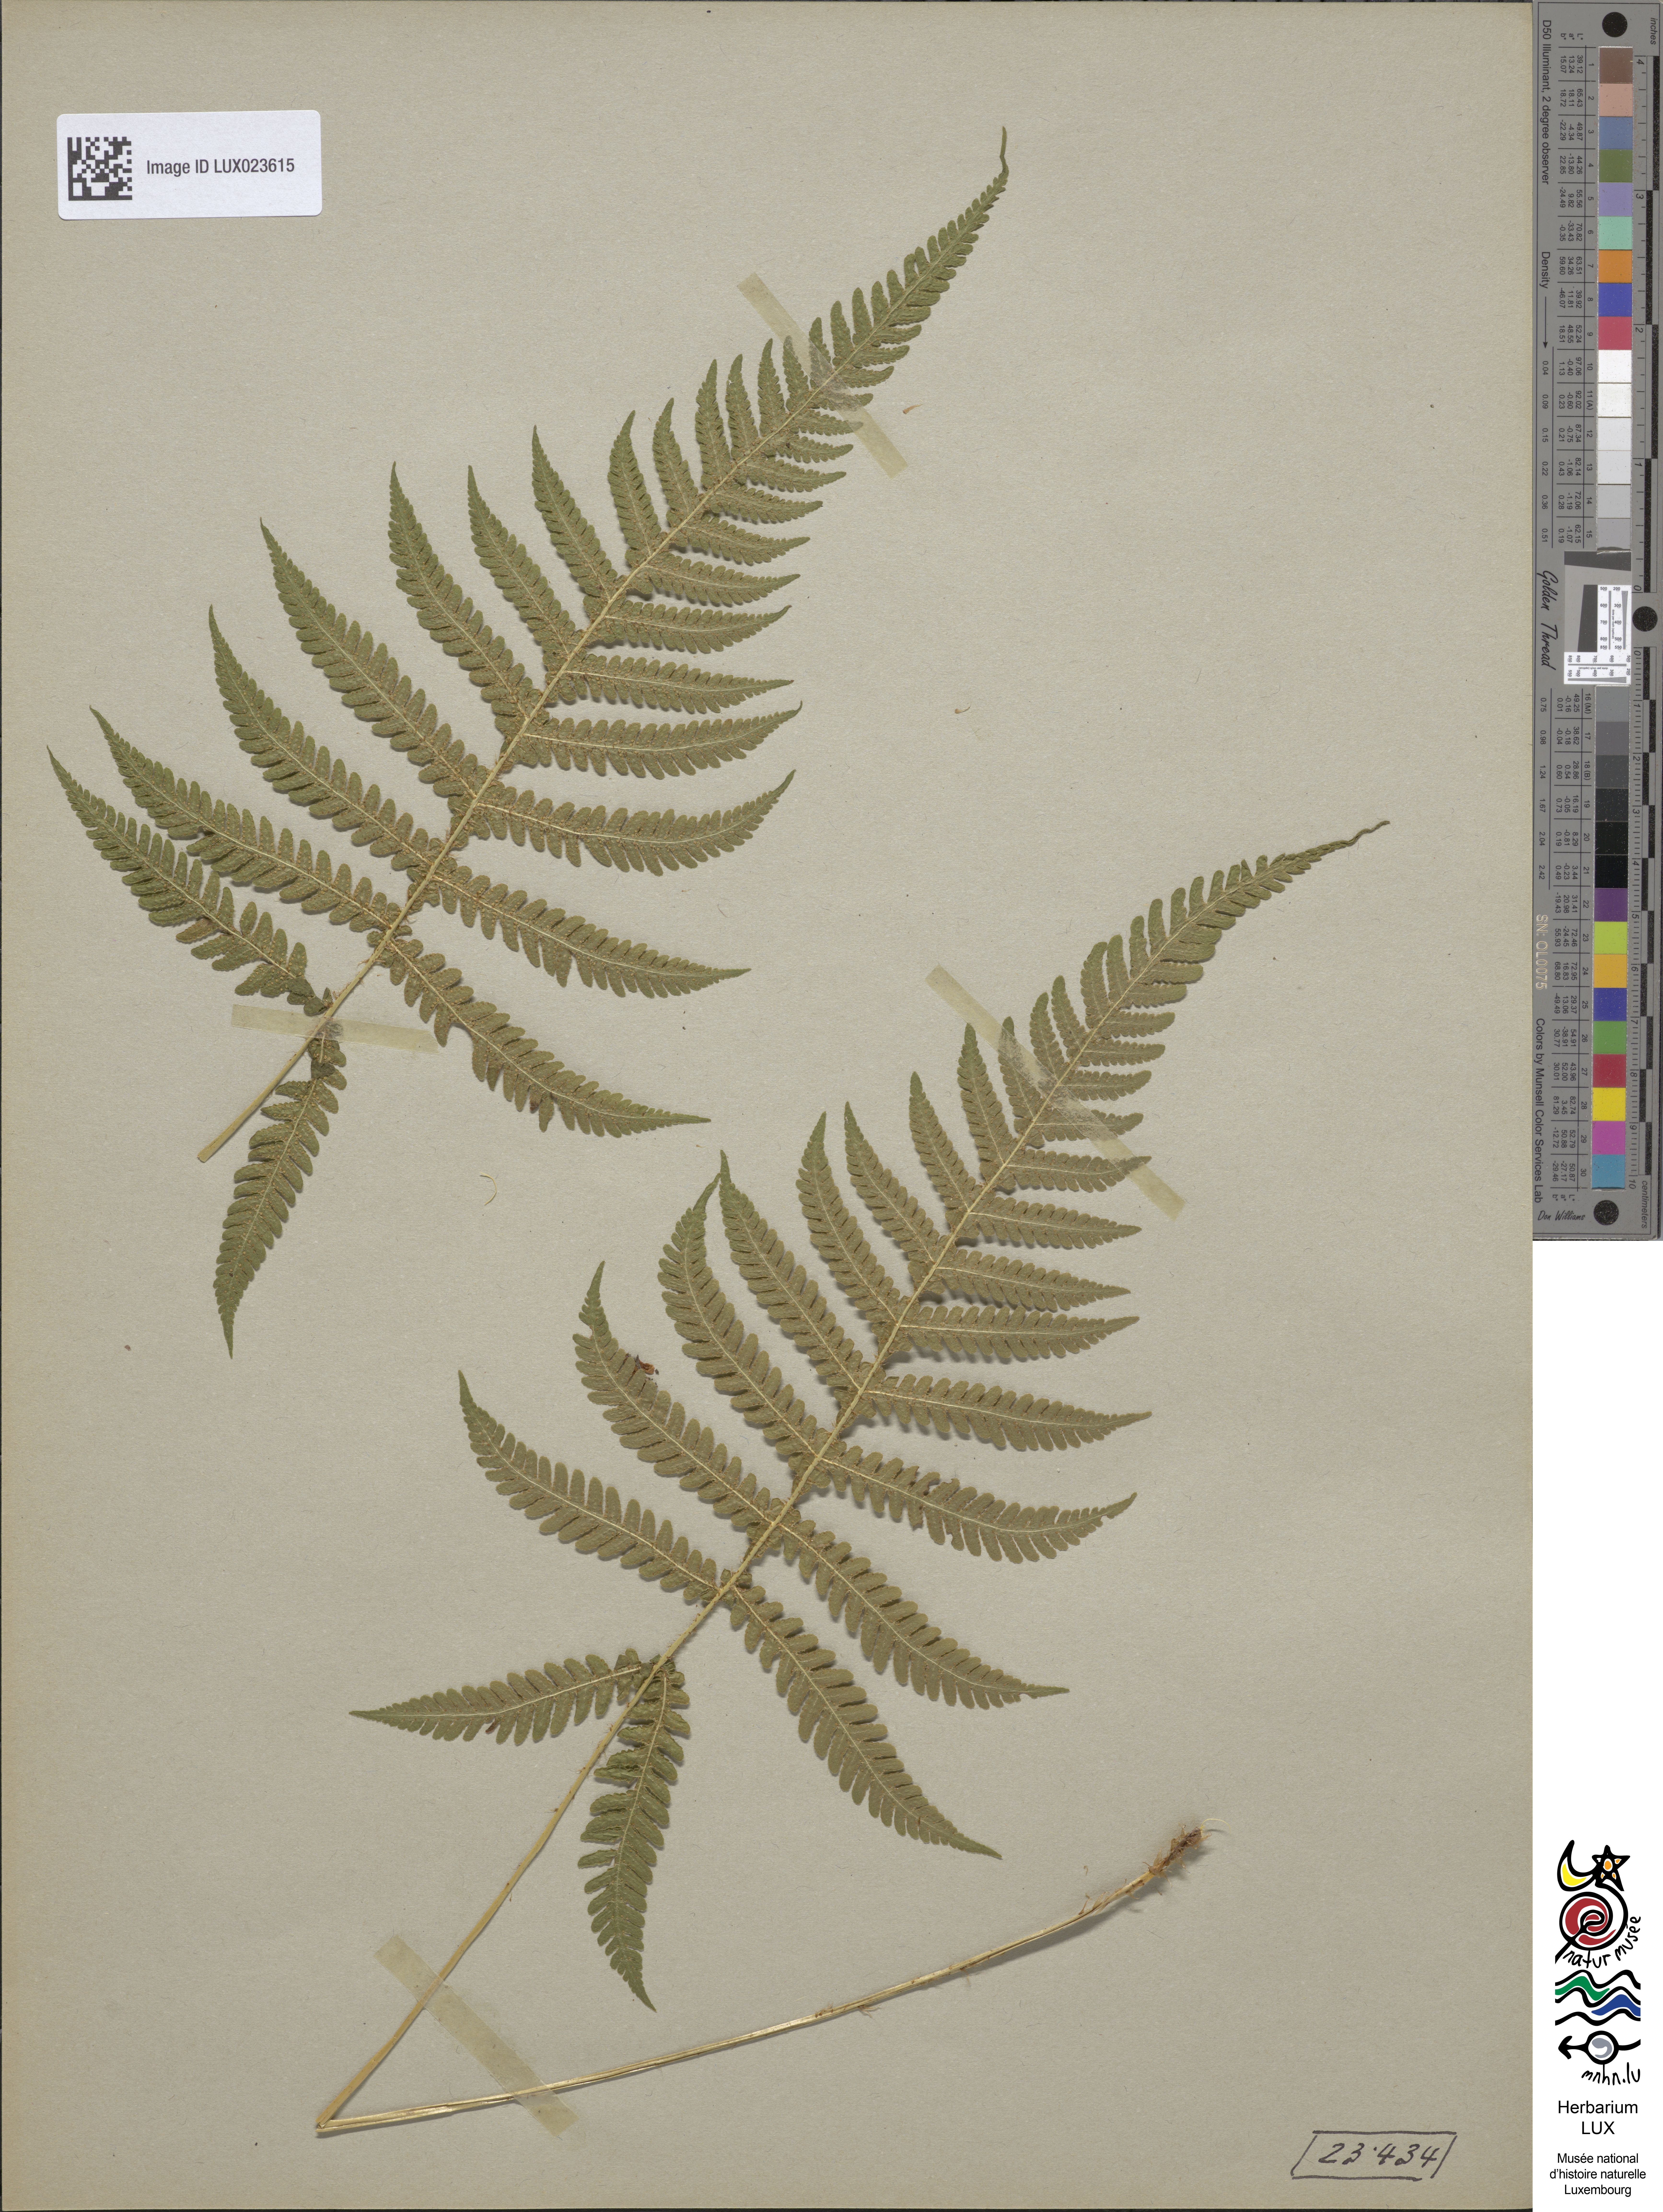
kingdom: Plantae
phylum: Tracheophyta
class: Polypodiopsida
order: Polypodiales
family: Thelypteridaceae
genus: Phegopteris
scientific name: Phegopteris connectilis
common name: Beech fern
